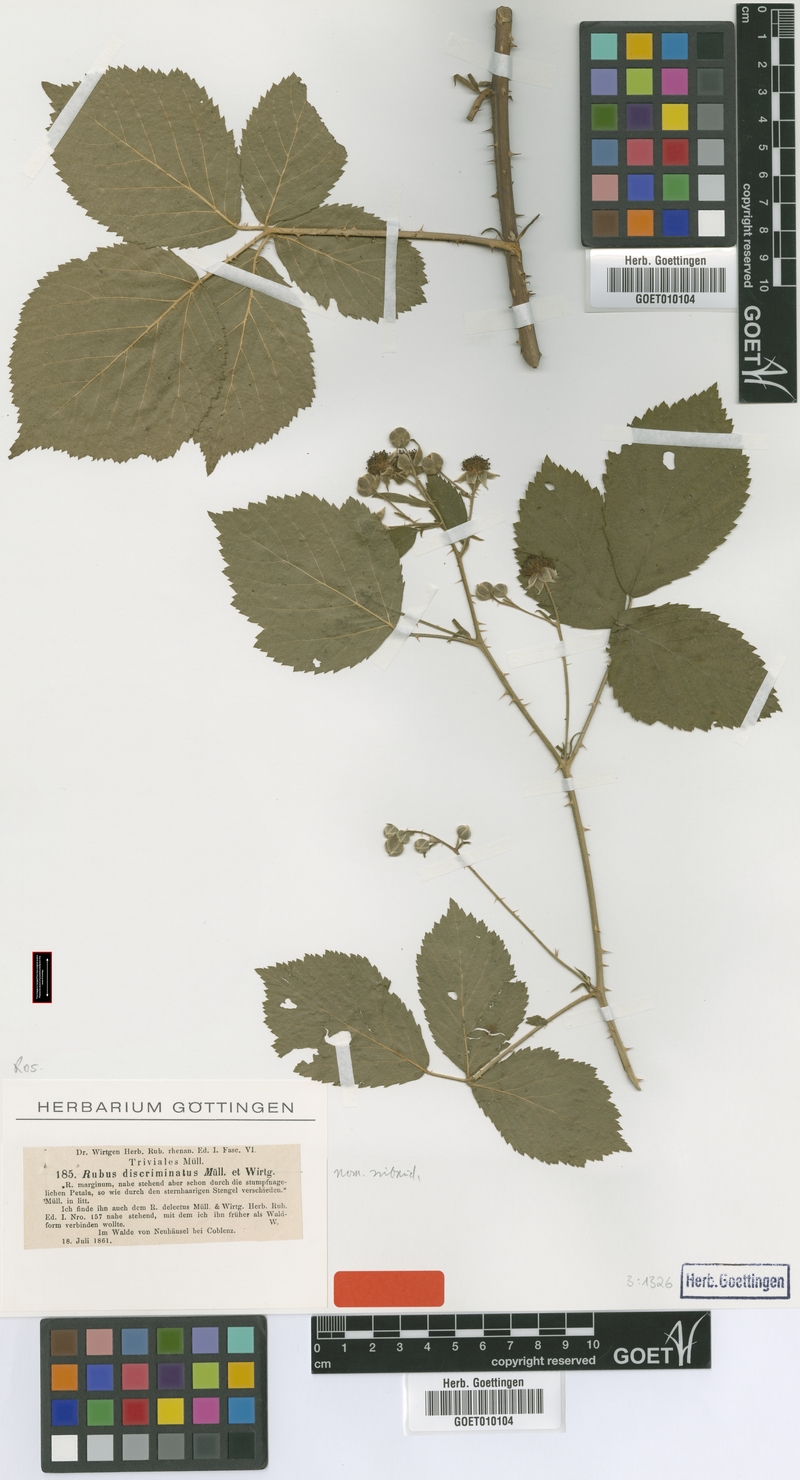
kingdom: Plantae
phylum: Tracheophyta
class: Magnoliopsida
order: Rosales
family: Rosaceae
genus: Rubus
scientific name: Rubus discriminatus
